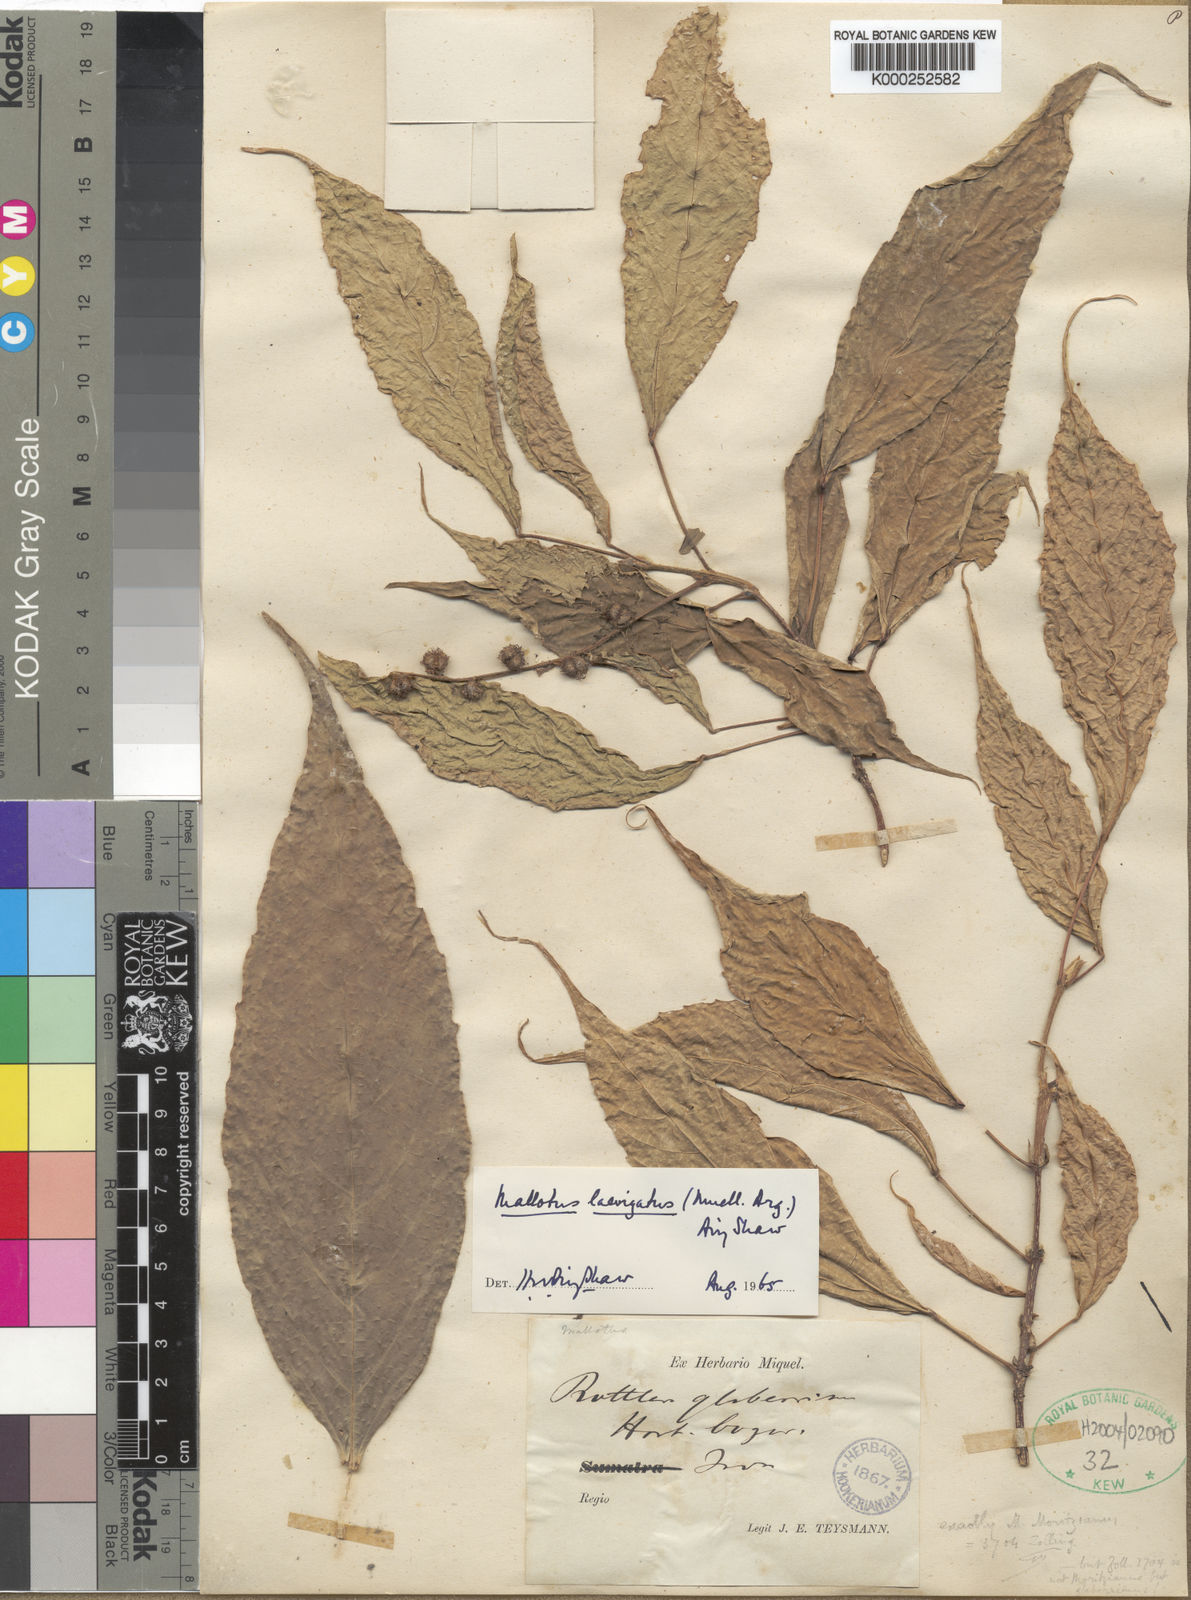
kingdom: Plantae
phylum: Tracheophyta
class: Magnoliopsida
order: Malpighiales
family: Euphorbiaceae
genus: Mallotus
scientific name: Mallotus lancifolius
